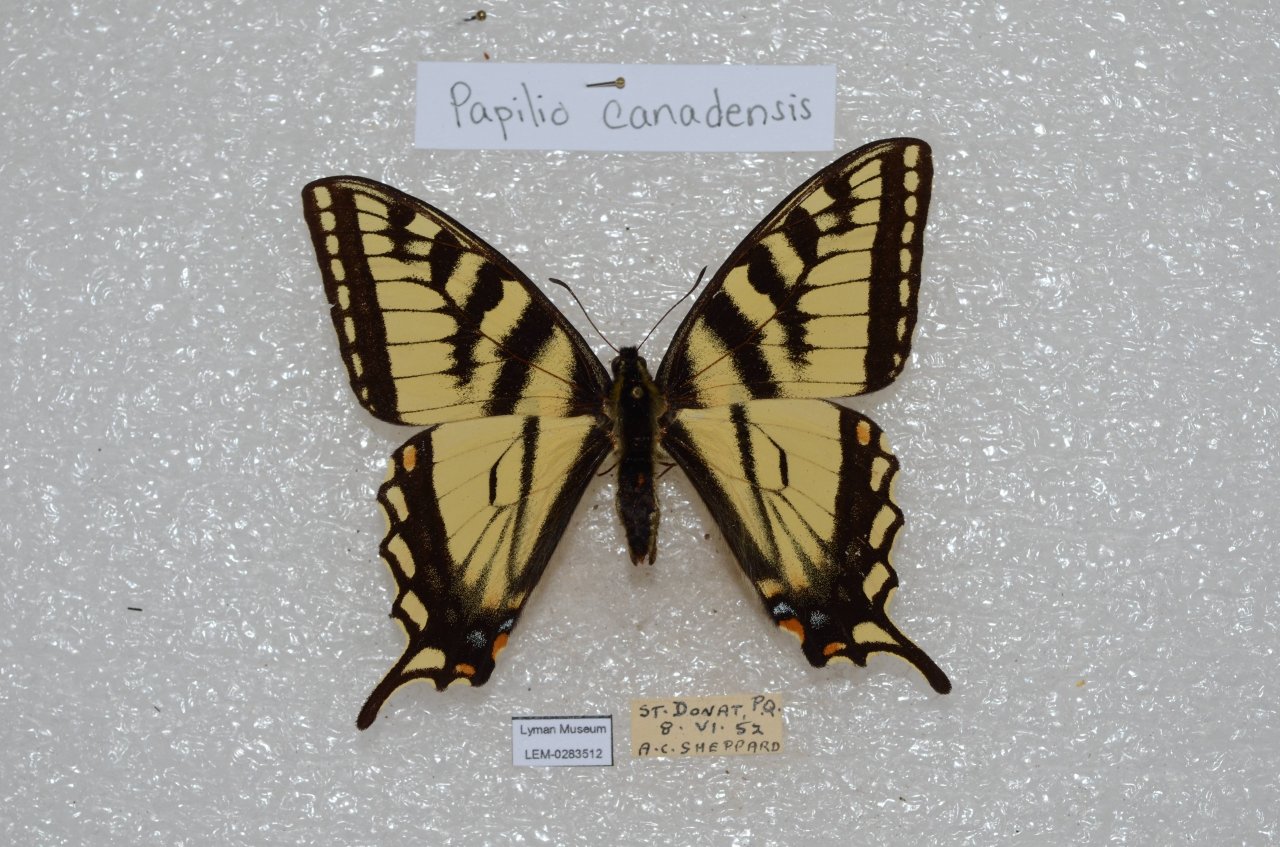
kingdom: Animalia
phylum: Arthropoda
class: Insecta
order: Lepidoptera
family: Papilionidae
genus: Pterourus
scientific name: Pterourus canadensis
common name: Canadian Tiger Swallowtail
